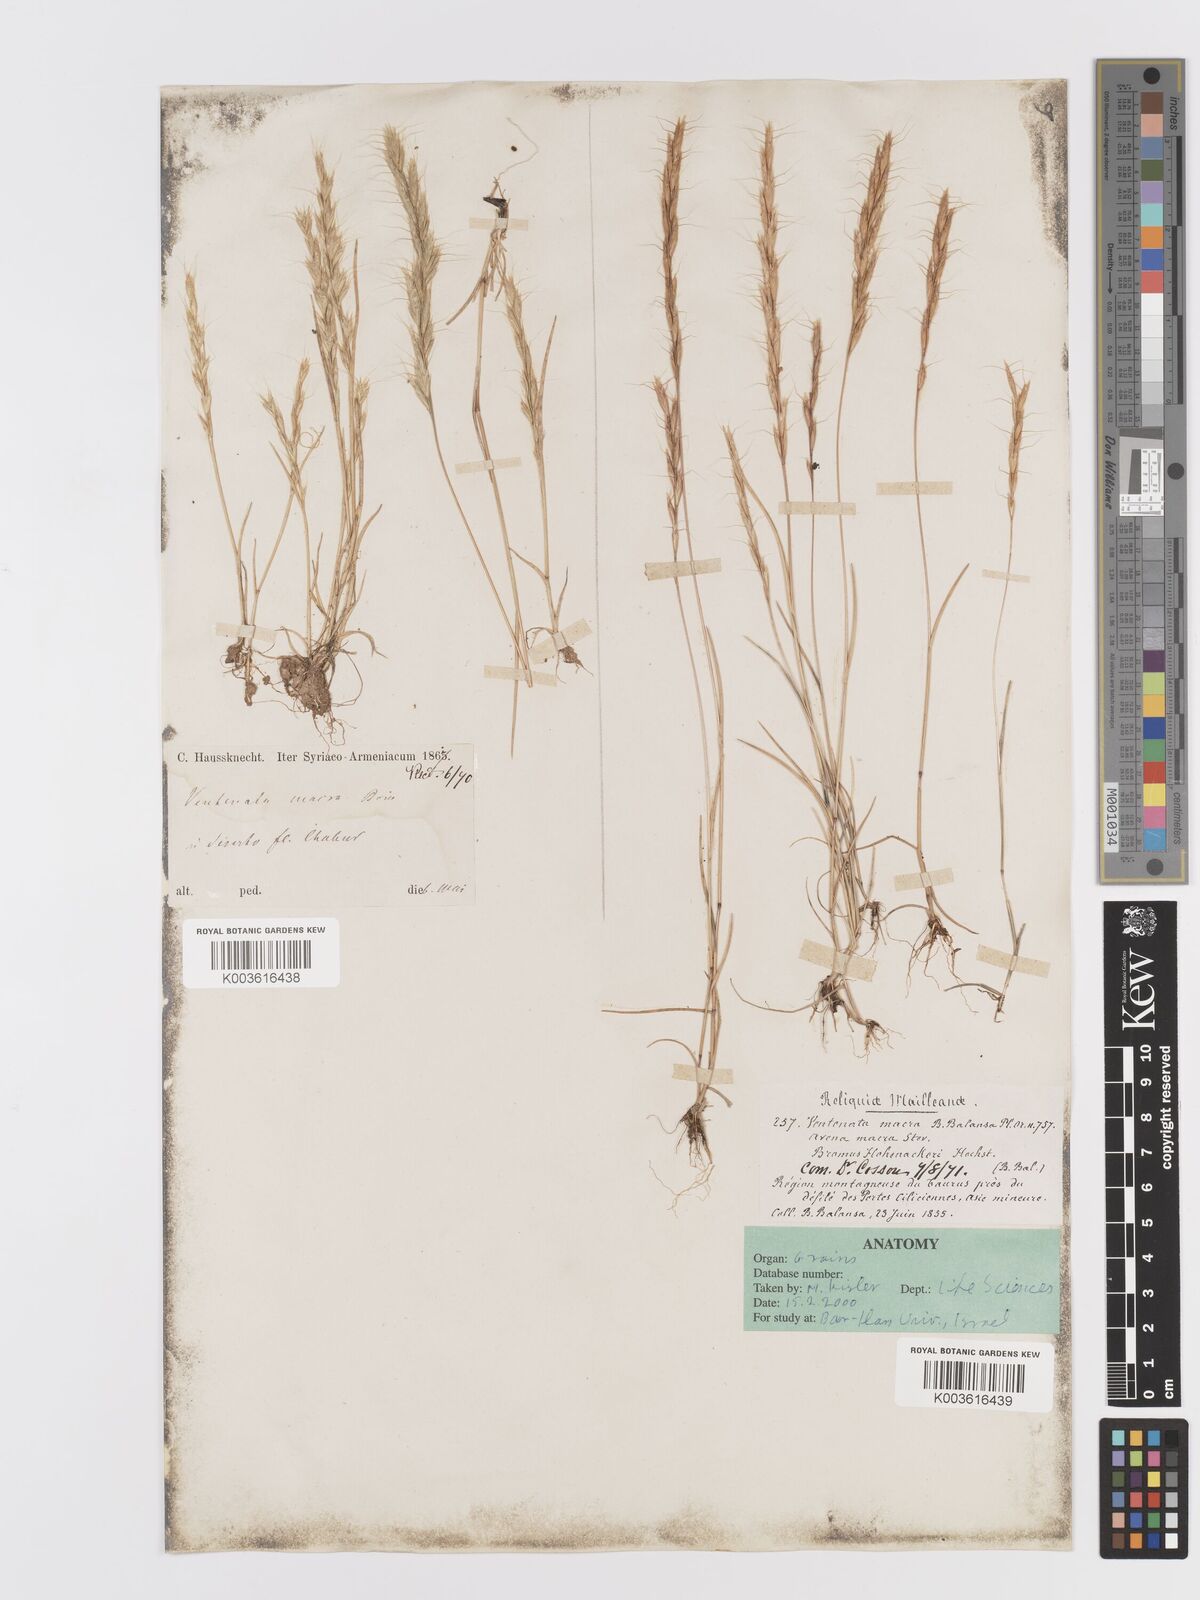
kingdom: Plantae
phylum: Tracheophyta
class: Liliopsida
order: Poales
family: Poaceae
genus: Ventenata
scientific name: Ventenata macra
